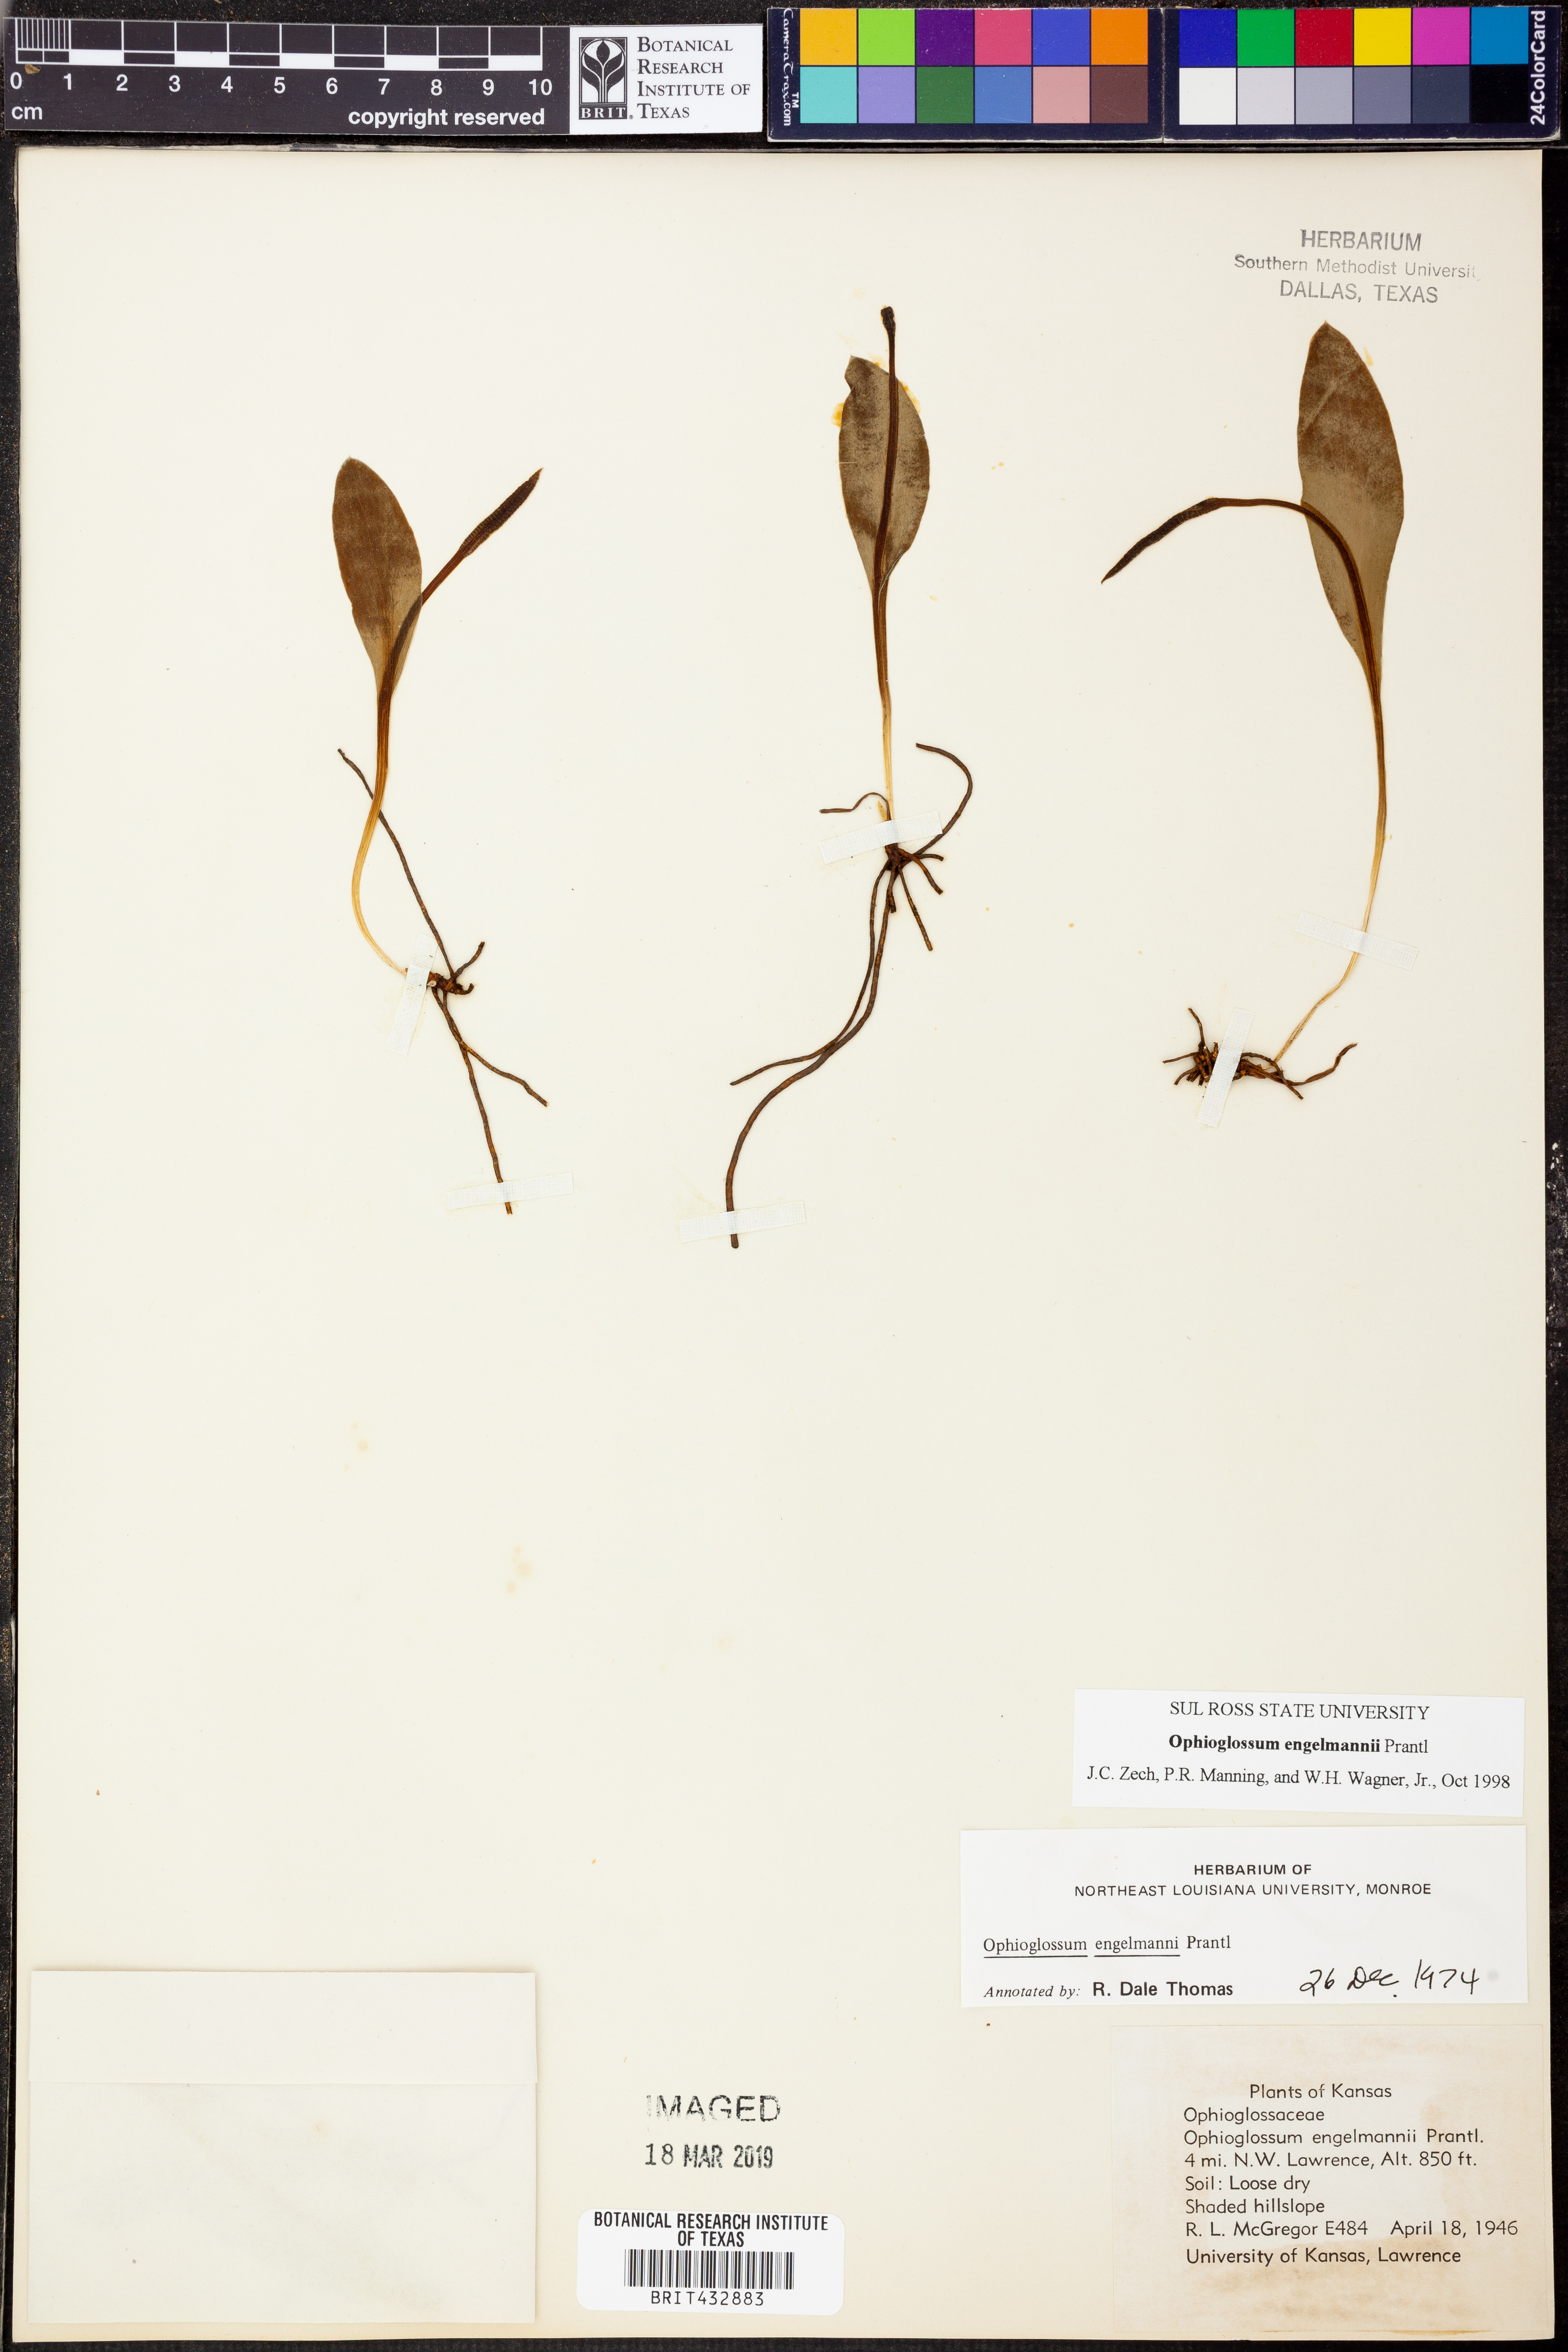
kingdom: Plantae
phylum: Tracheophyta
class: Polypodiopsida
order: Ophioglossales
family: Ophioglossaceae
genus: Ophioglossum
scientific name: Ophioglossum engelmannii
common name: Limestone adder's-tongue
